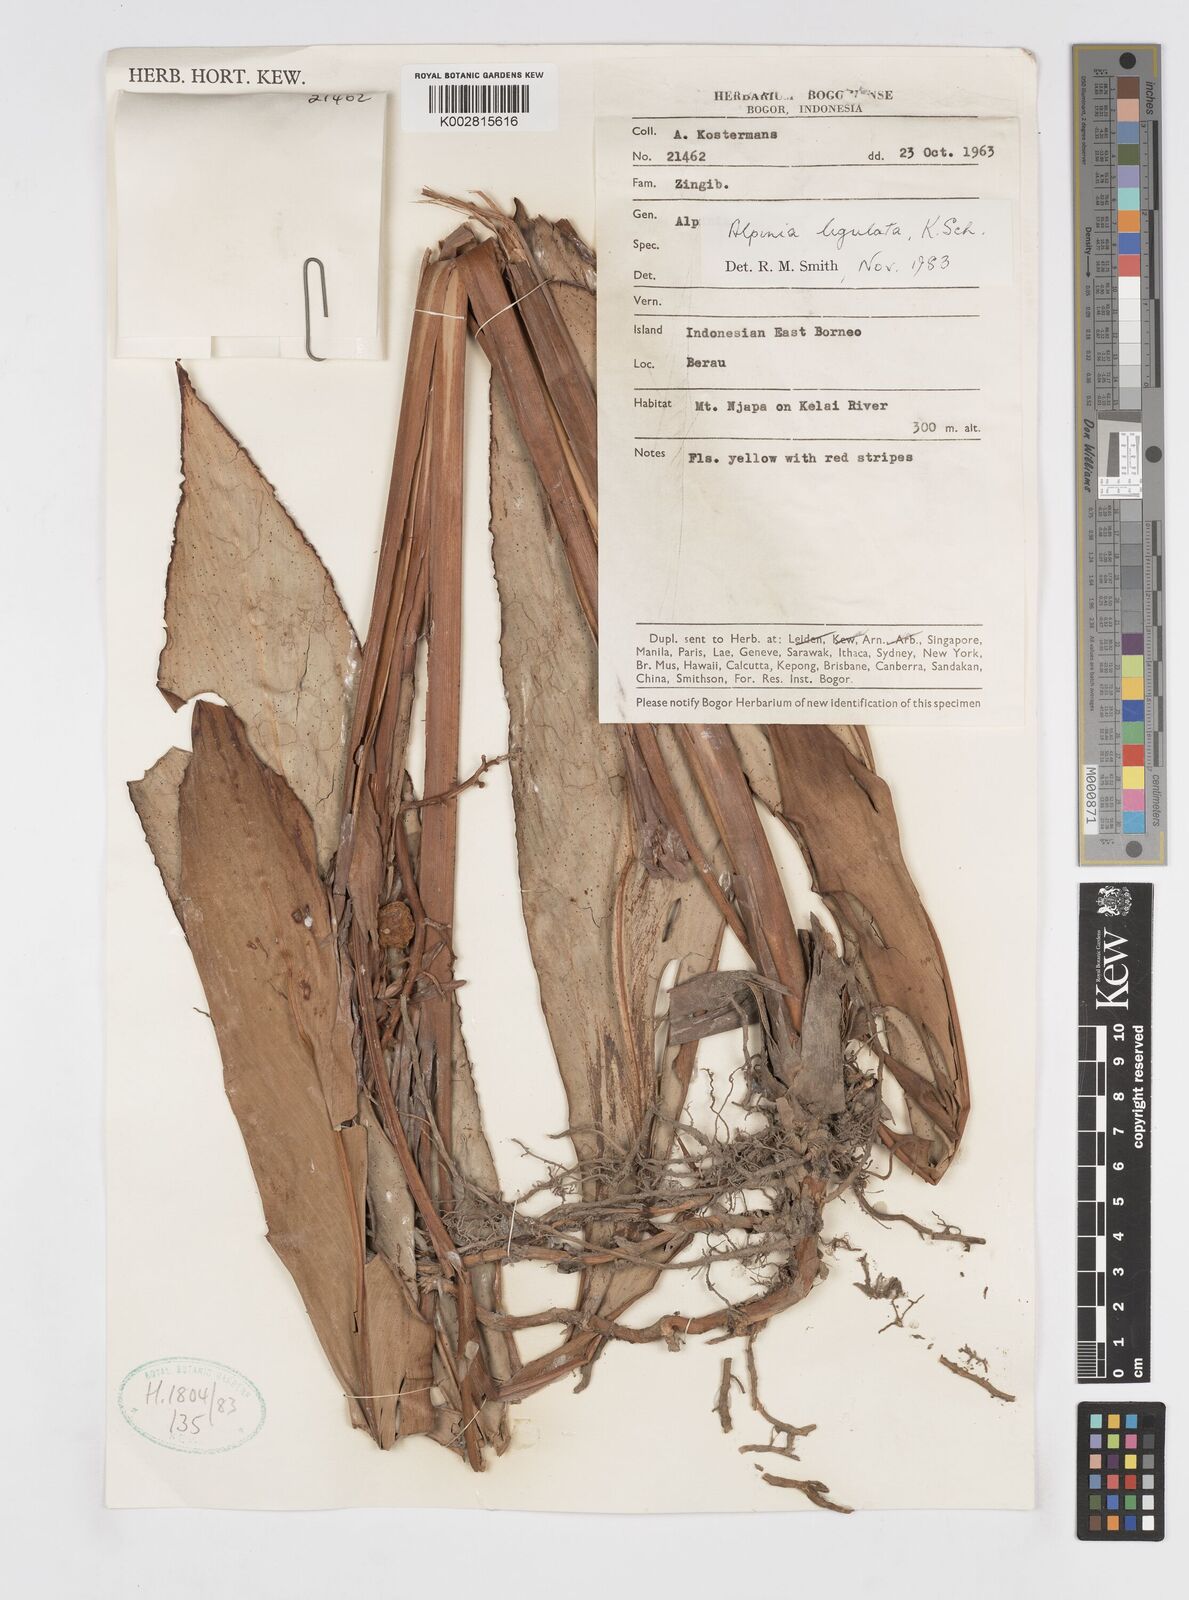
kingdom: Plantae
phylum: Tracheophyta
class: Liliopsida
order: Zingiberales
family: Zingiberaceae
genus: Alpinia
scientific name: Alpinia ligulata
